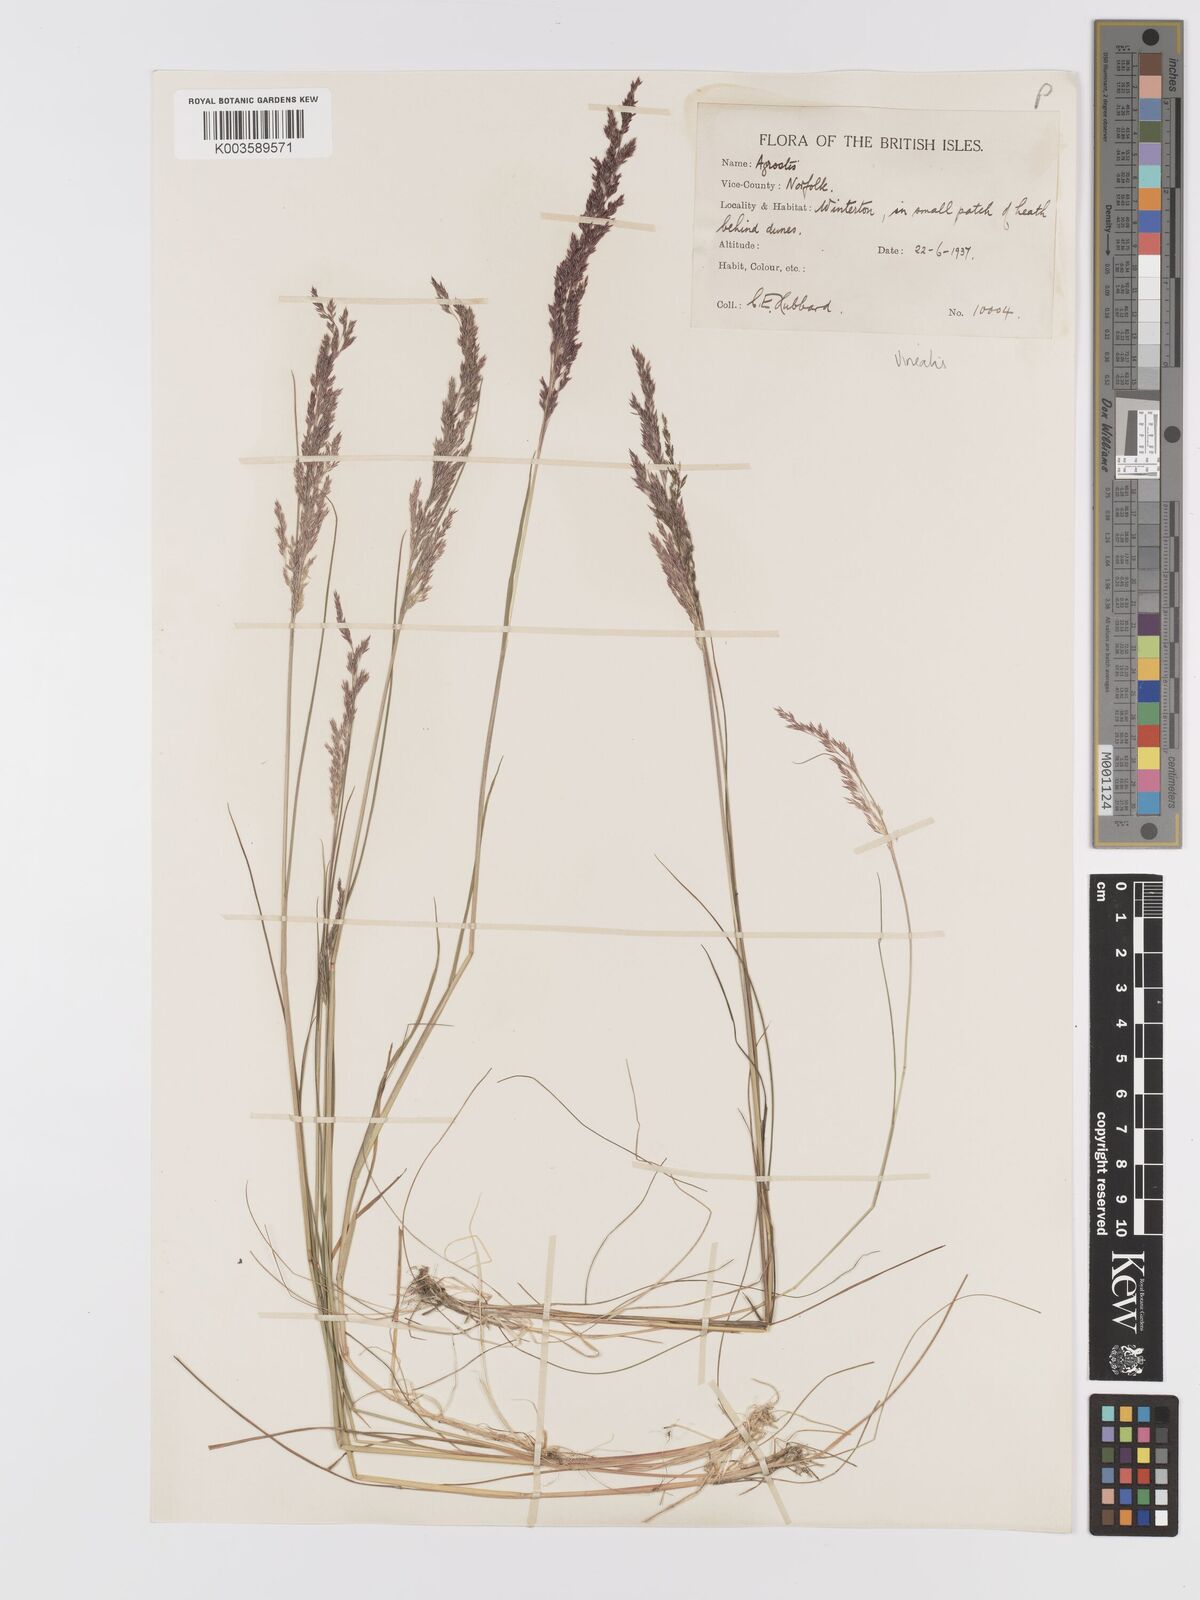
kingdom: Plantae
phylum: Tracheophyta
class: Liliopsida
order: Poales
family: Poaceae
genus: Agrostis
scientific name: Agrostis
